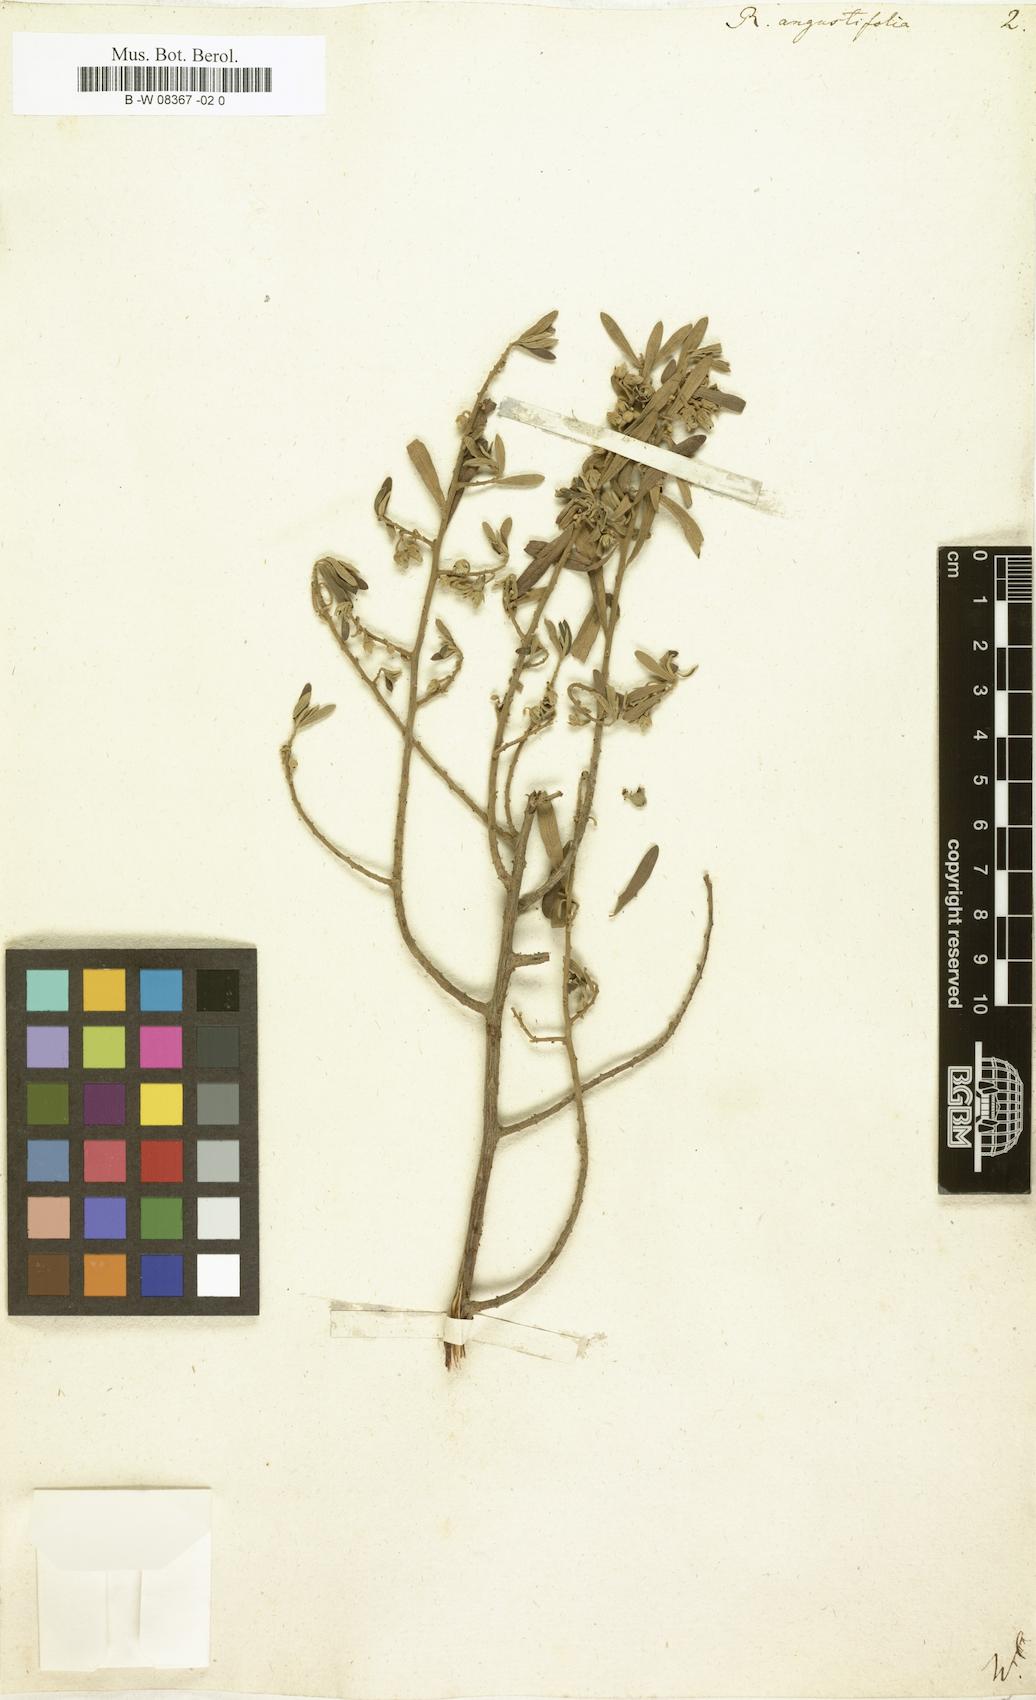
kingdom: Plantae
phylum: Tracheophyta
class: Magnoliopsida
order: Ericales
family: Ebenaceae
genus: Diospyros
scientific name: Diospyros
